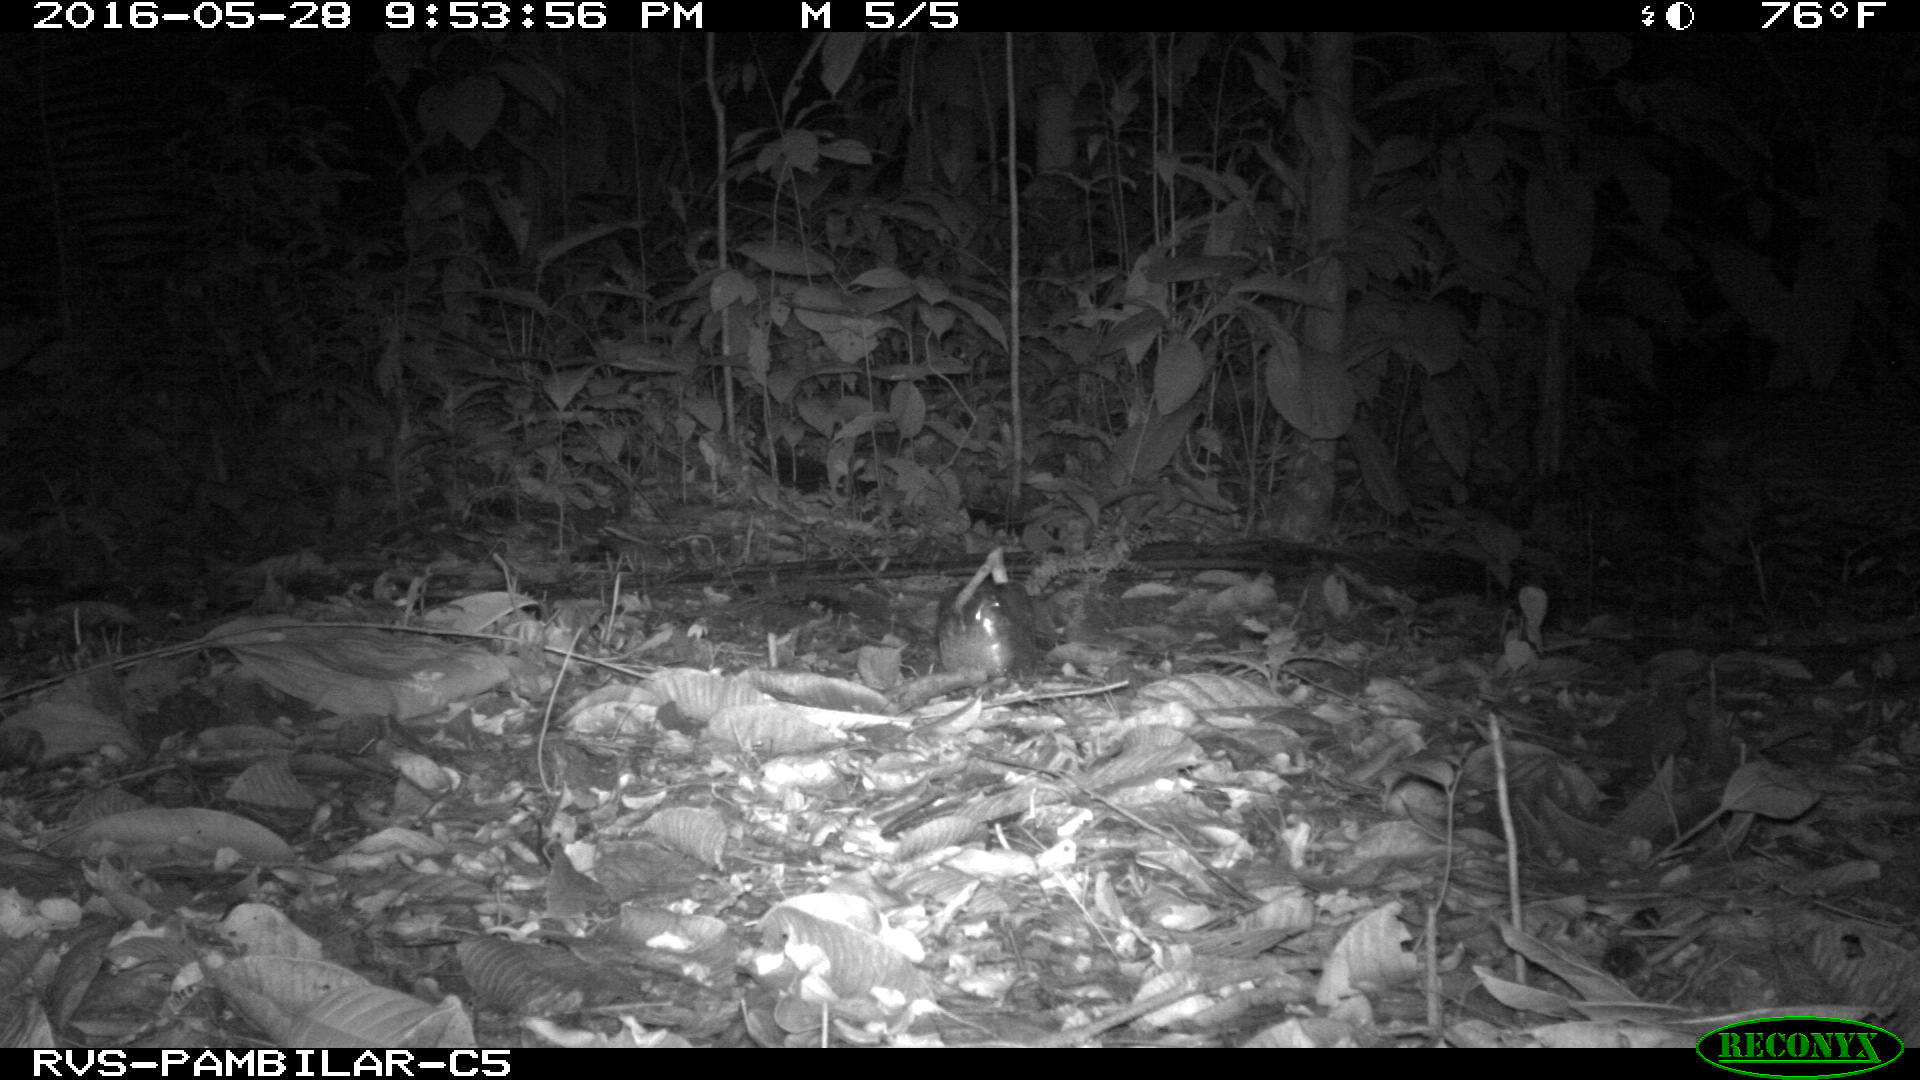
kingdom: Animalia
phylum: Chordata
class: Mammalia
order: Carnivora
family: Felidae
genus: Leopardus
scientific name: Leopardus pardalis
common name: Ocelot
